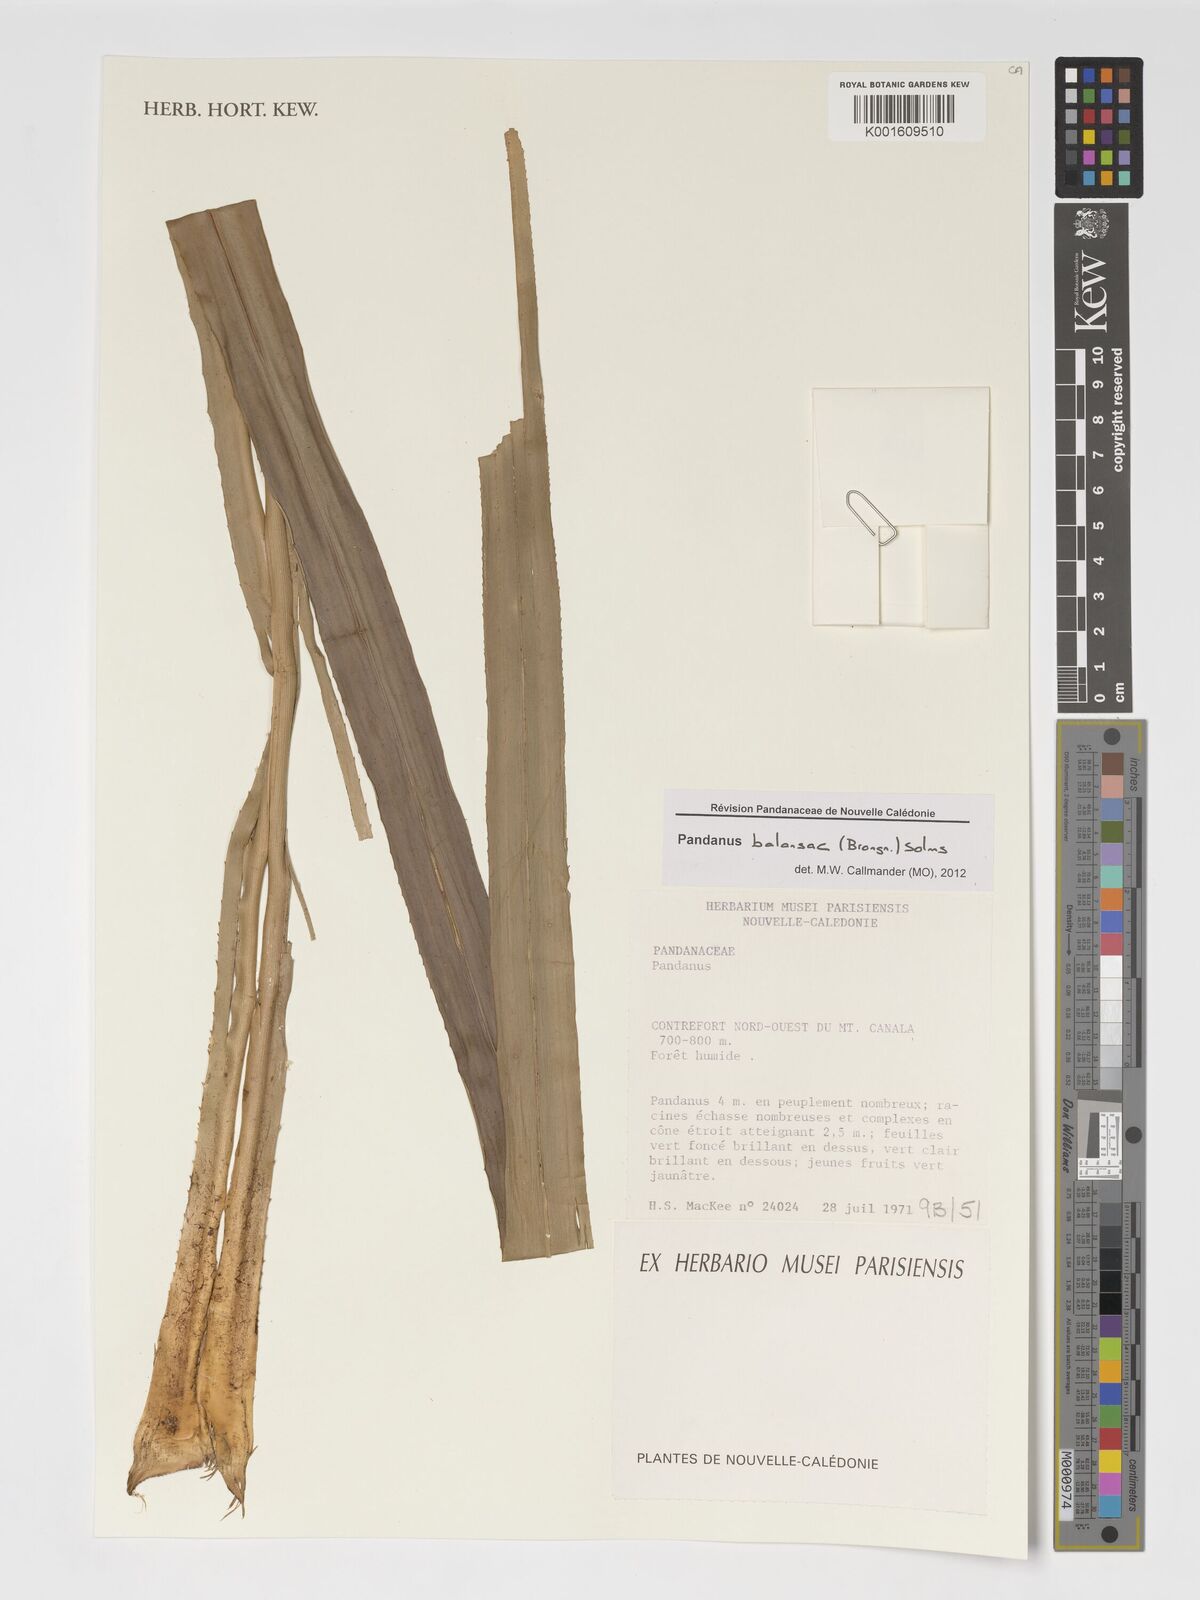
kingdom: Plantae
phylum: Tracheophyta
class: Liliopsida
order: Pandanales
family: Pandanaceae
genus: Pandanus
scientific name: Pandanus balansae
